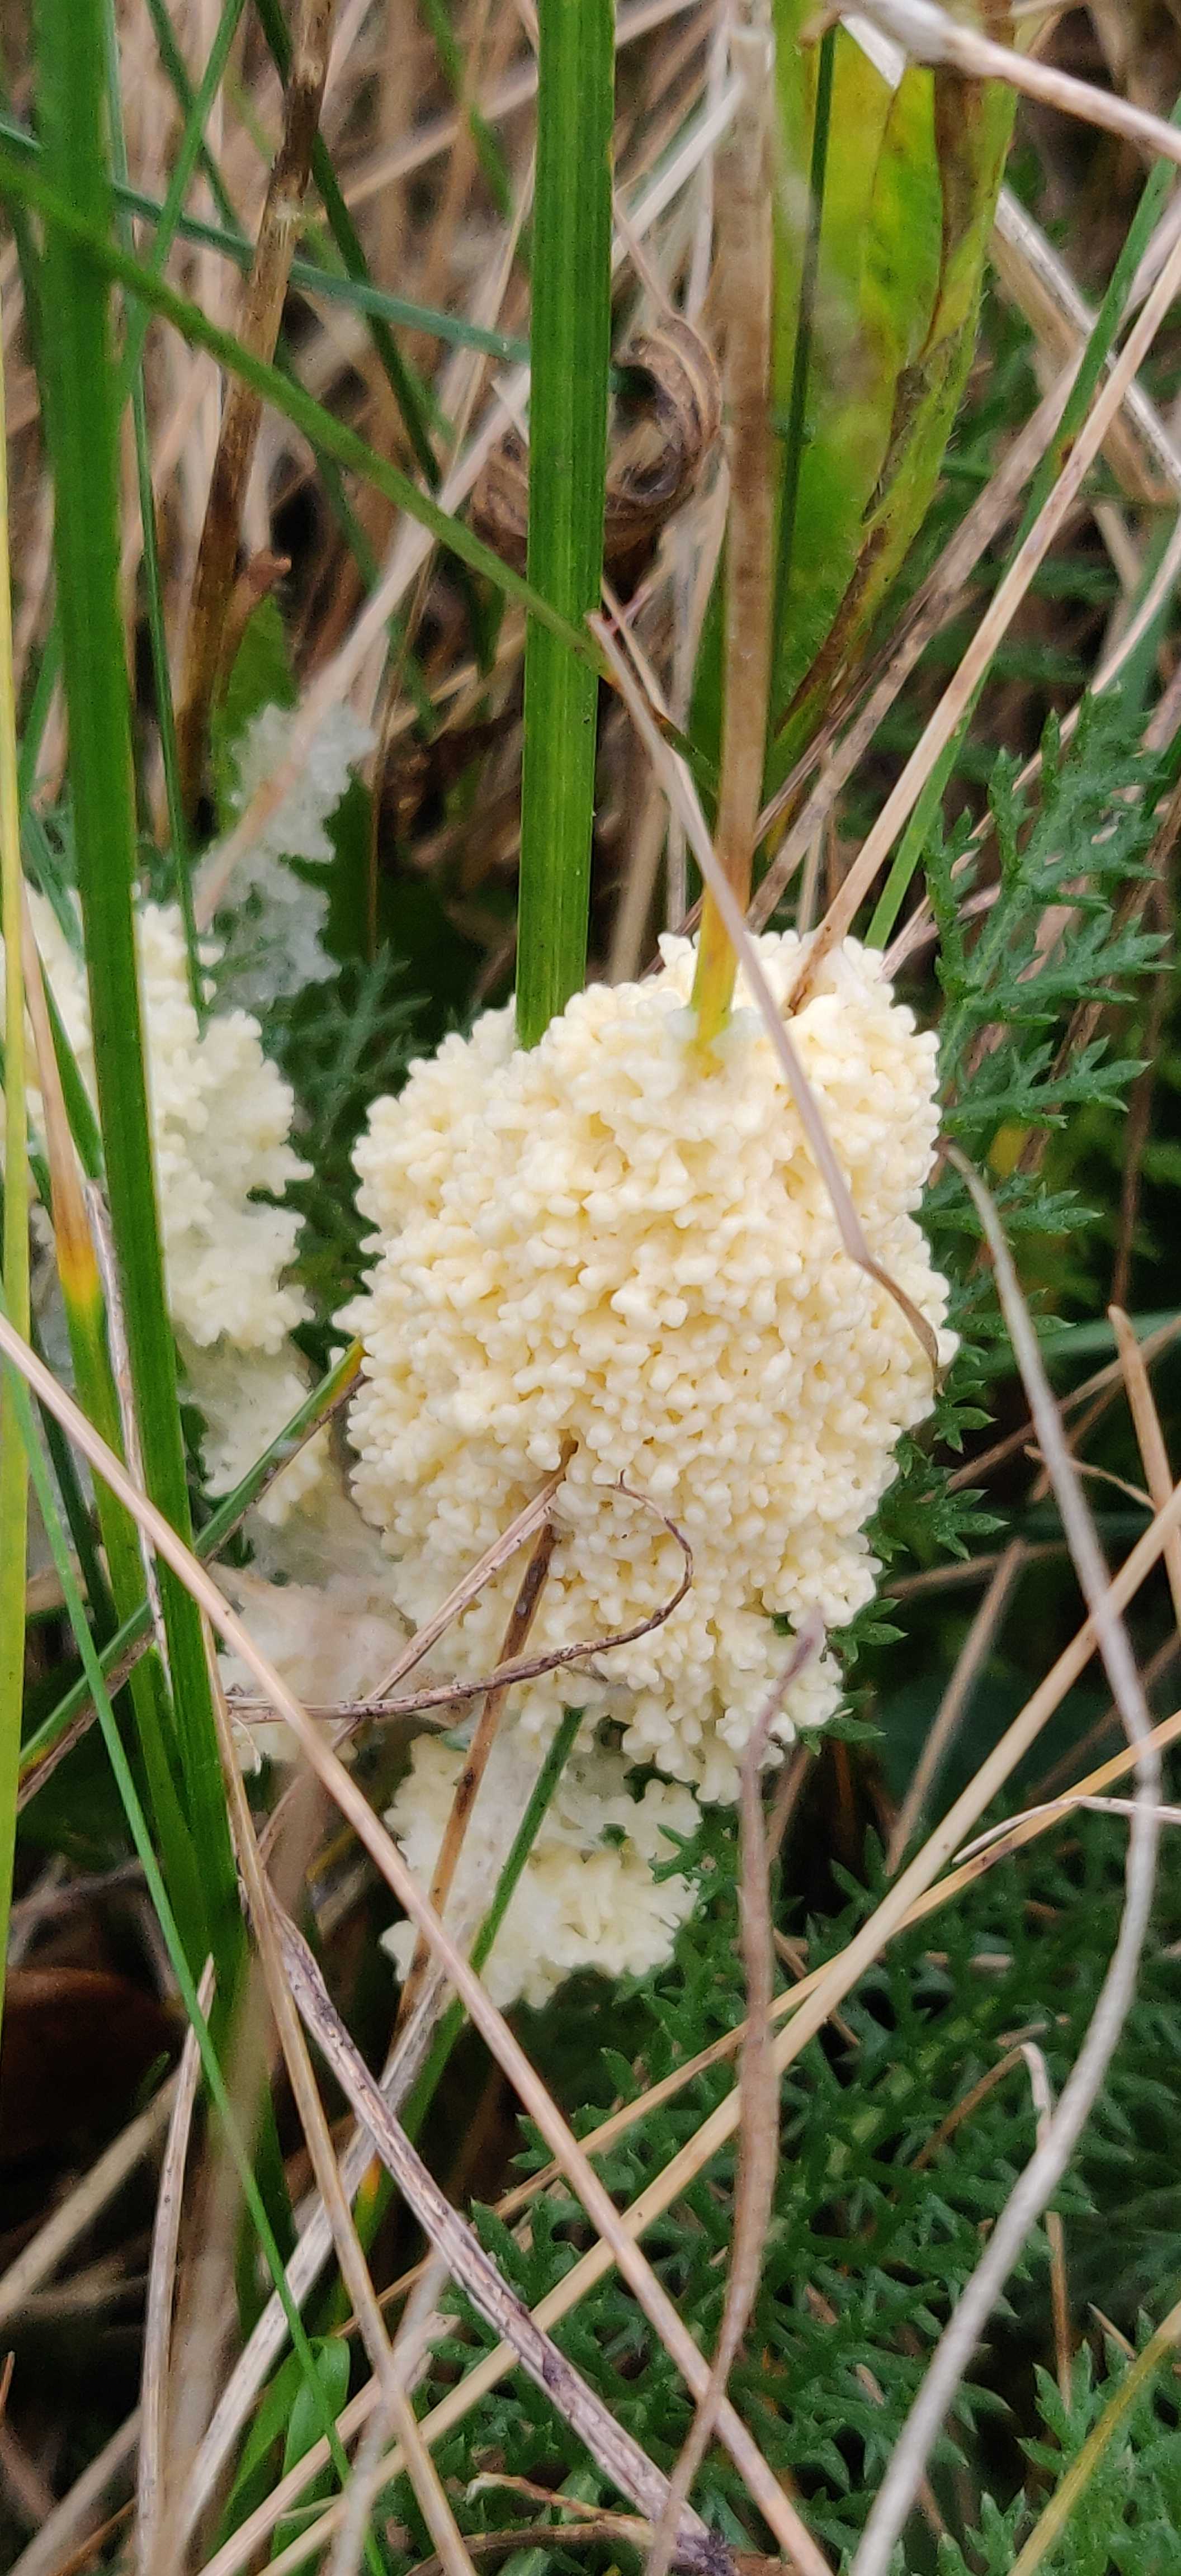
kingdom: Protozoa
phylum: Mycetozoa
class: Myxomycetes
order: Physarales
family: Physaraceae
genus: Didymium
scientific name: Didymium
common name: urteskum
